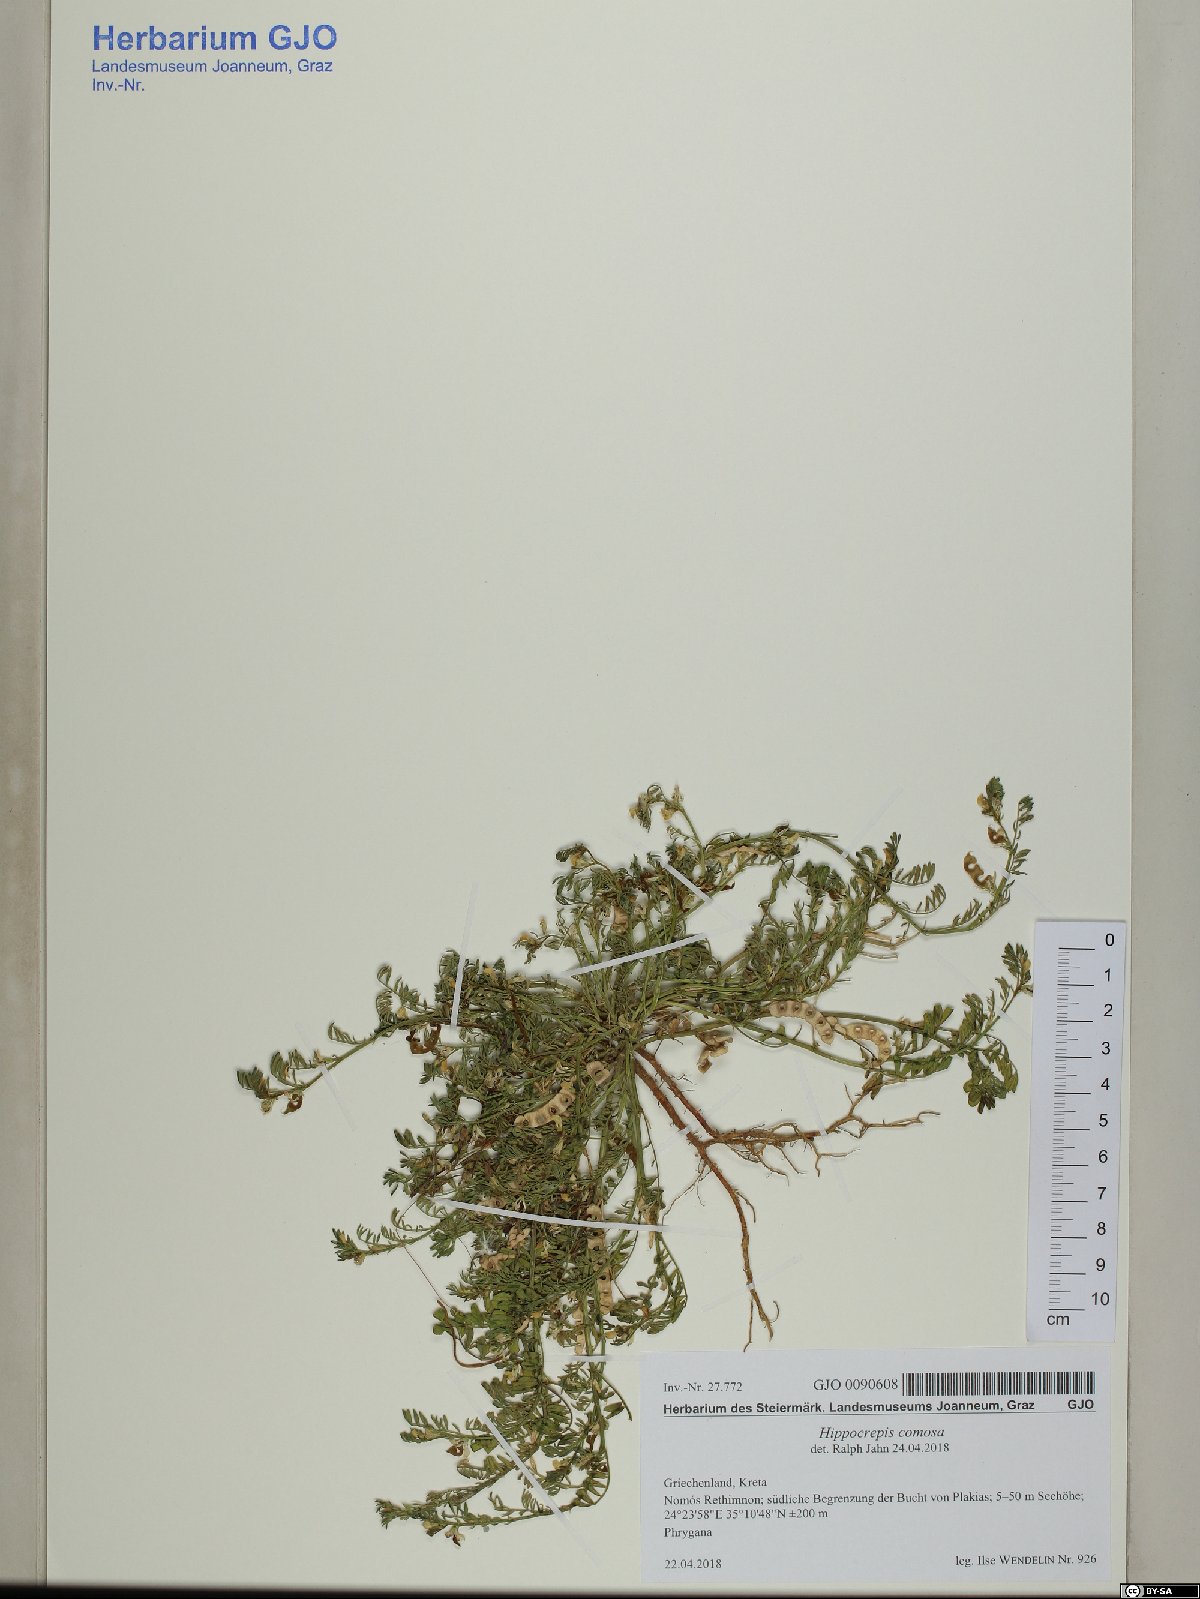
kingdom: Plantae
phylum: Tracheophyta
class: Magnoliopsida
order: Fabales
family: Fabaceae
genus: Hippocrepis
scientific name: Hippocrepis comosa
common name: Horseshoe vetch
